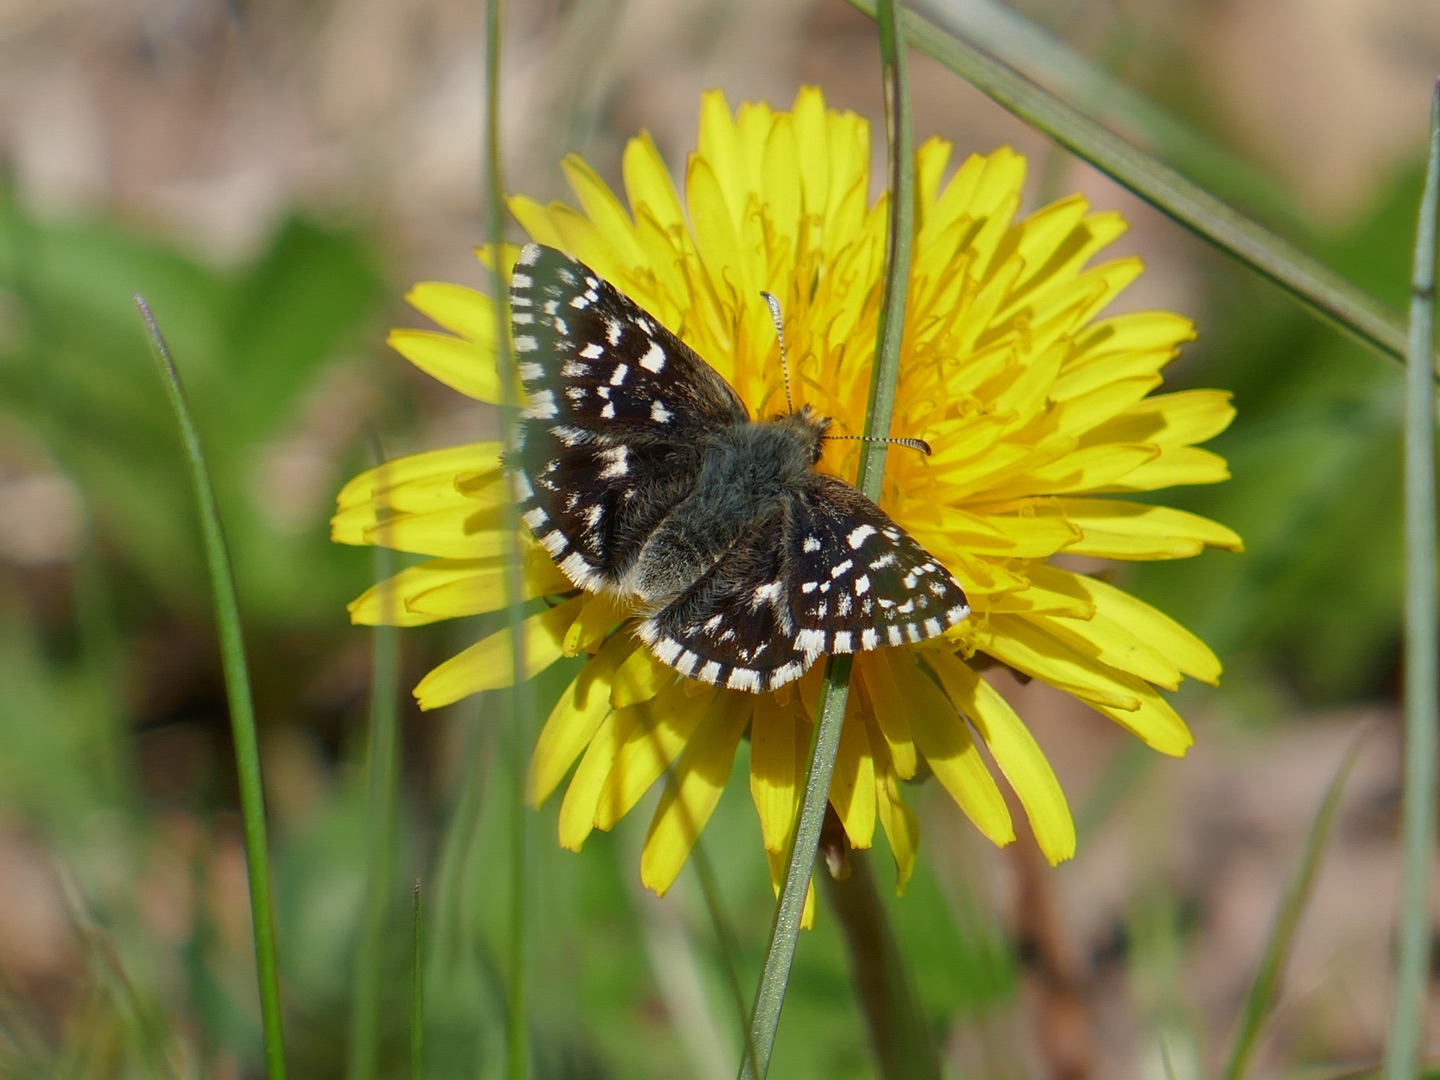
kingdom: Animalia
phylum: Arthropoda
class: Insecta
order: Lepidoptera
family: Hesperiidae
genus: Pyrgus
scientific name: Pyrgus malvae
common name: Spættet bredpande
